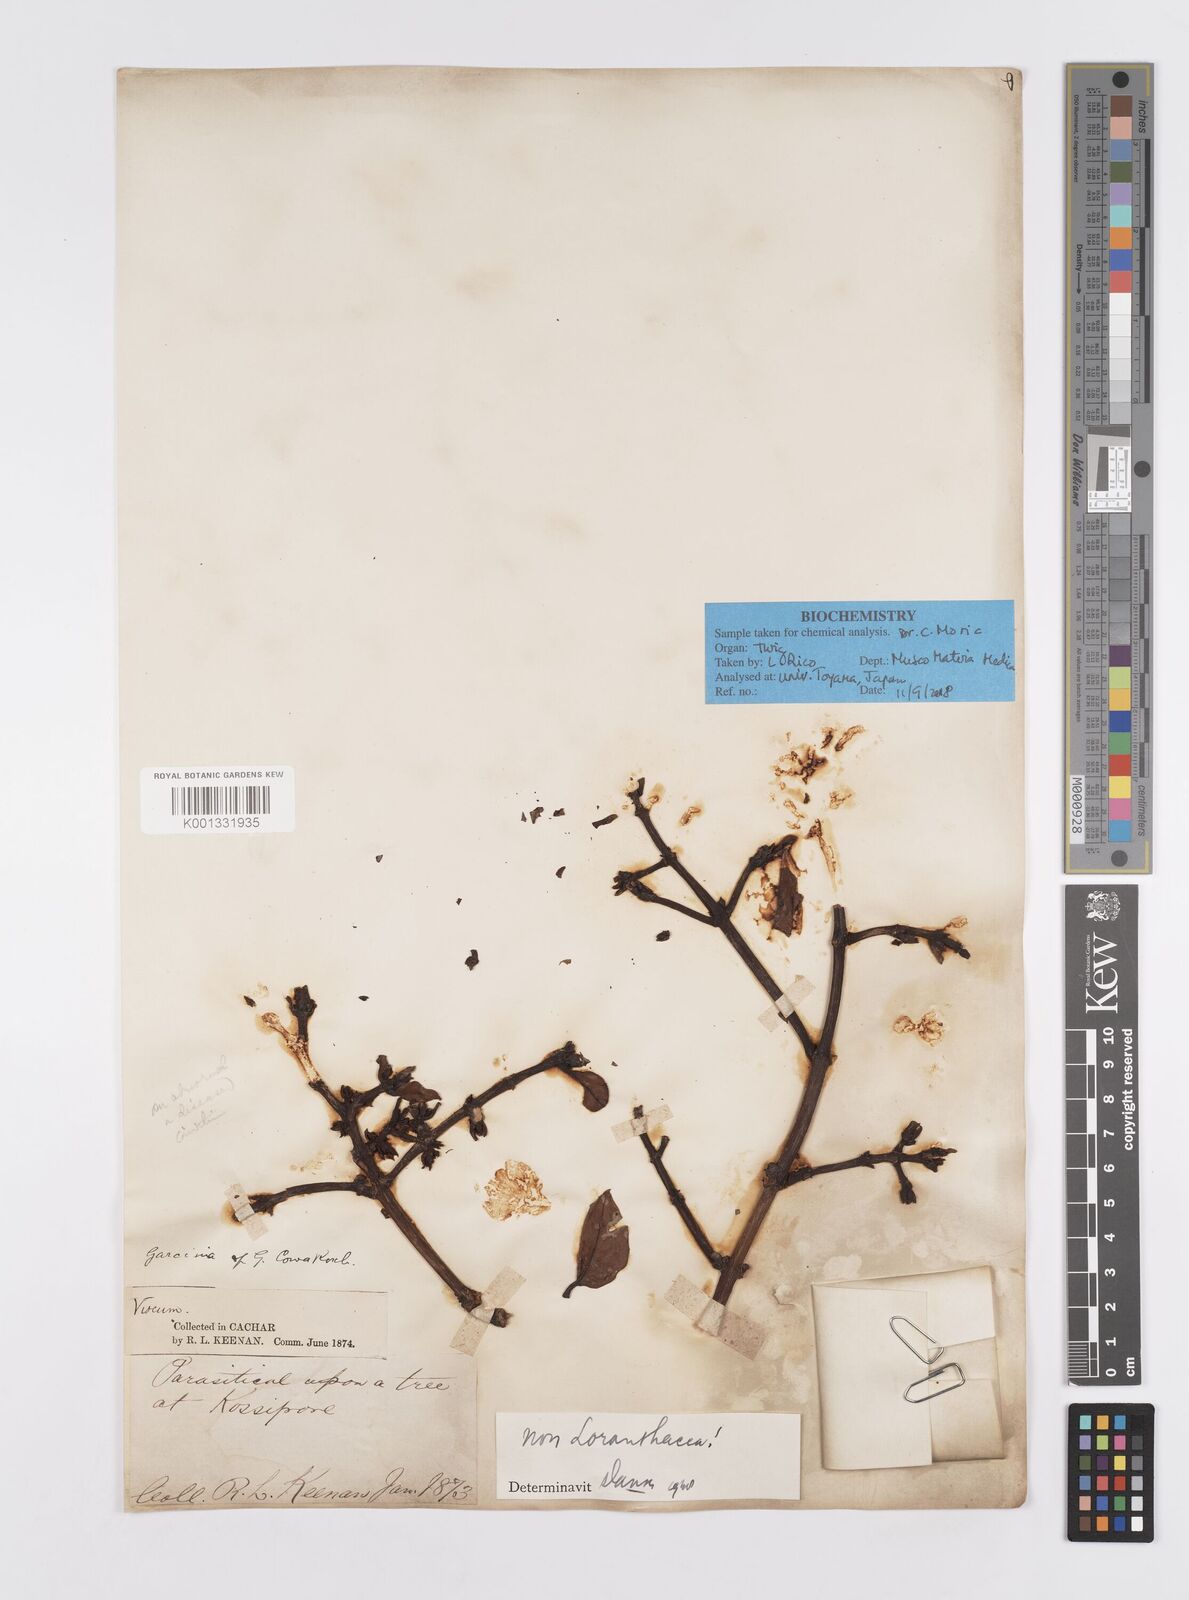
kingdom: Plantae
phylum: Tracheophyta
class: Magnoliopsida
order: Malpighiales
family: Clusiaceae
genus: Garcinia
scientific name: Garcinia
